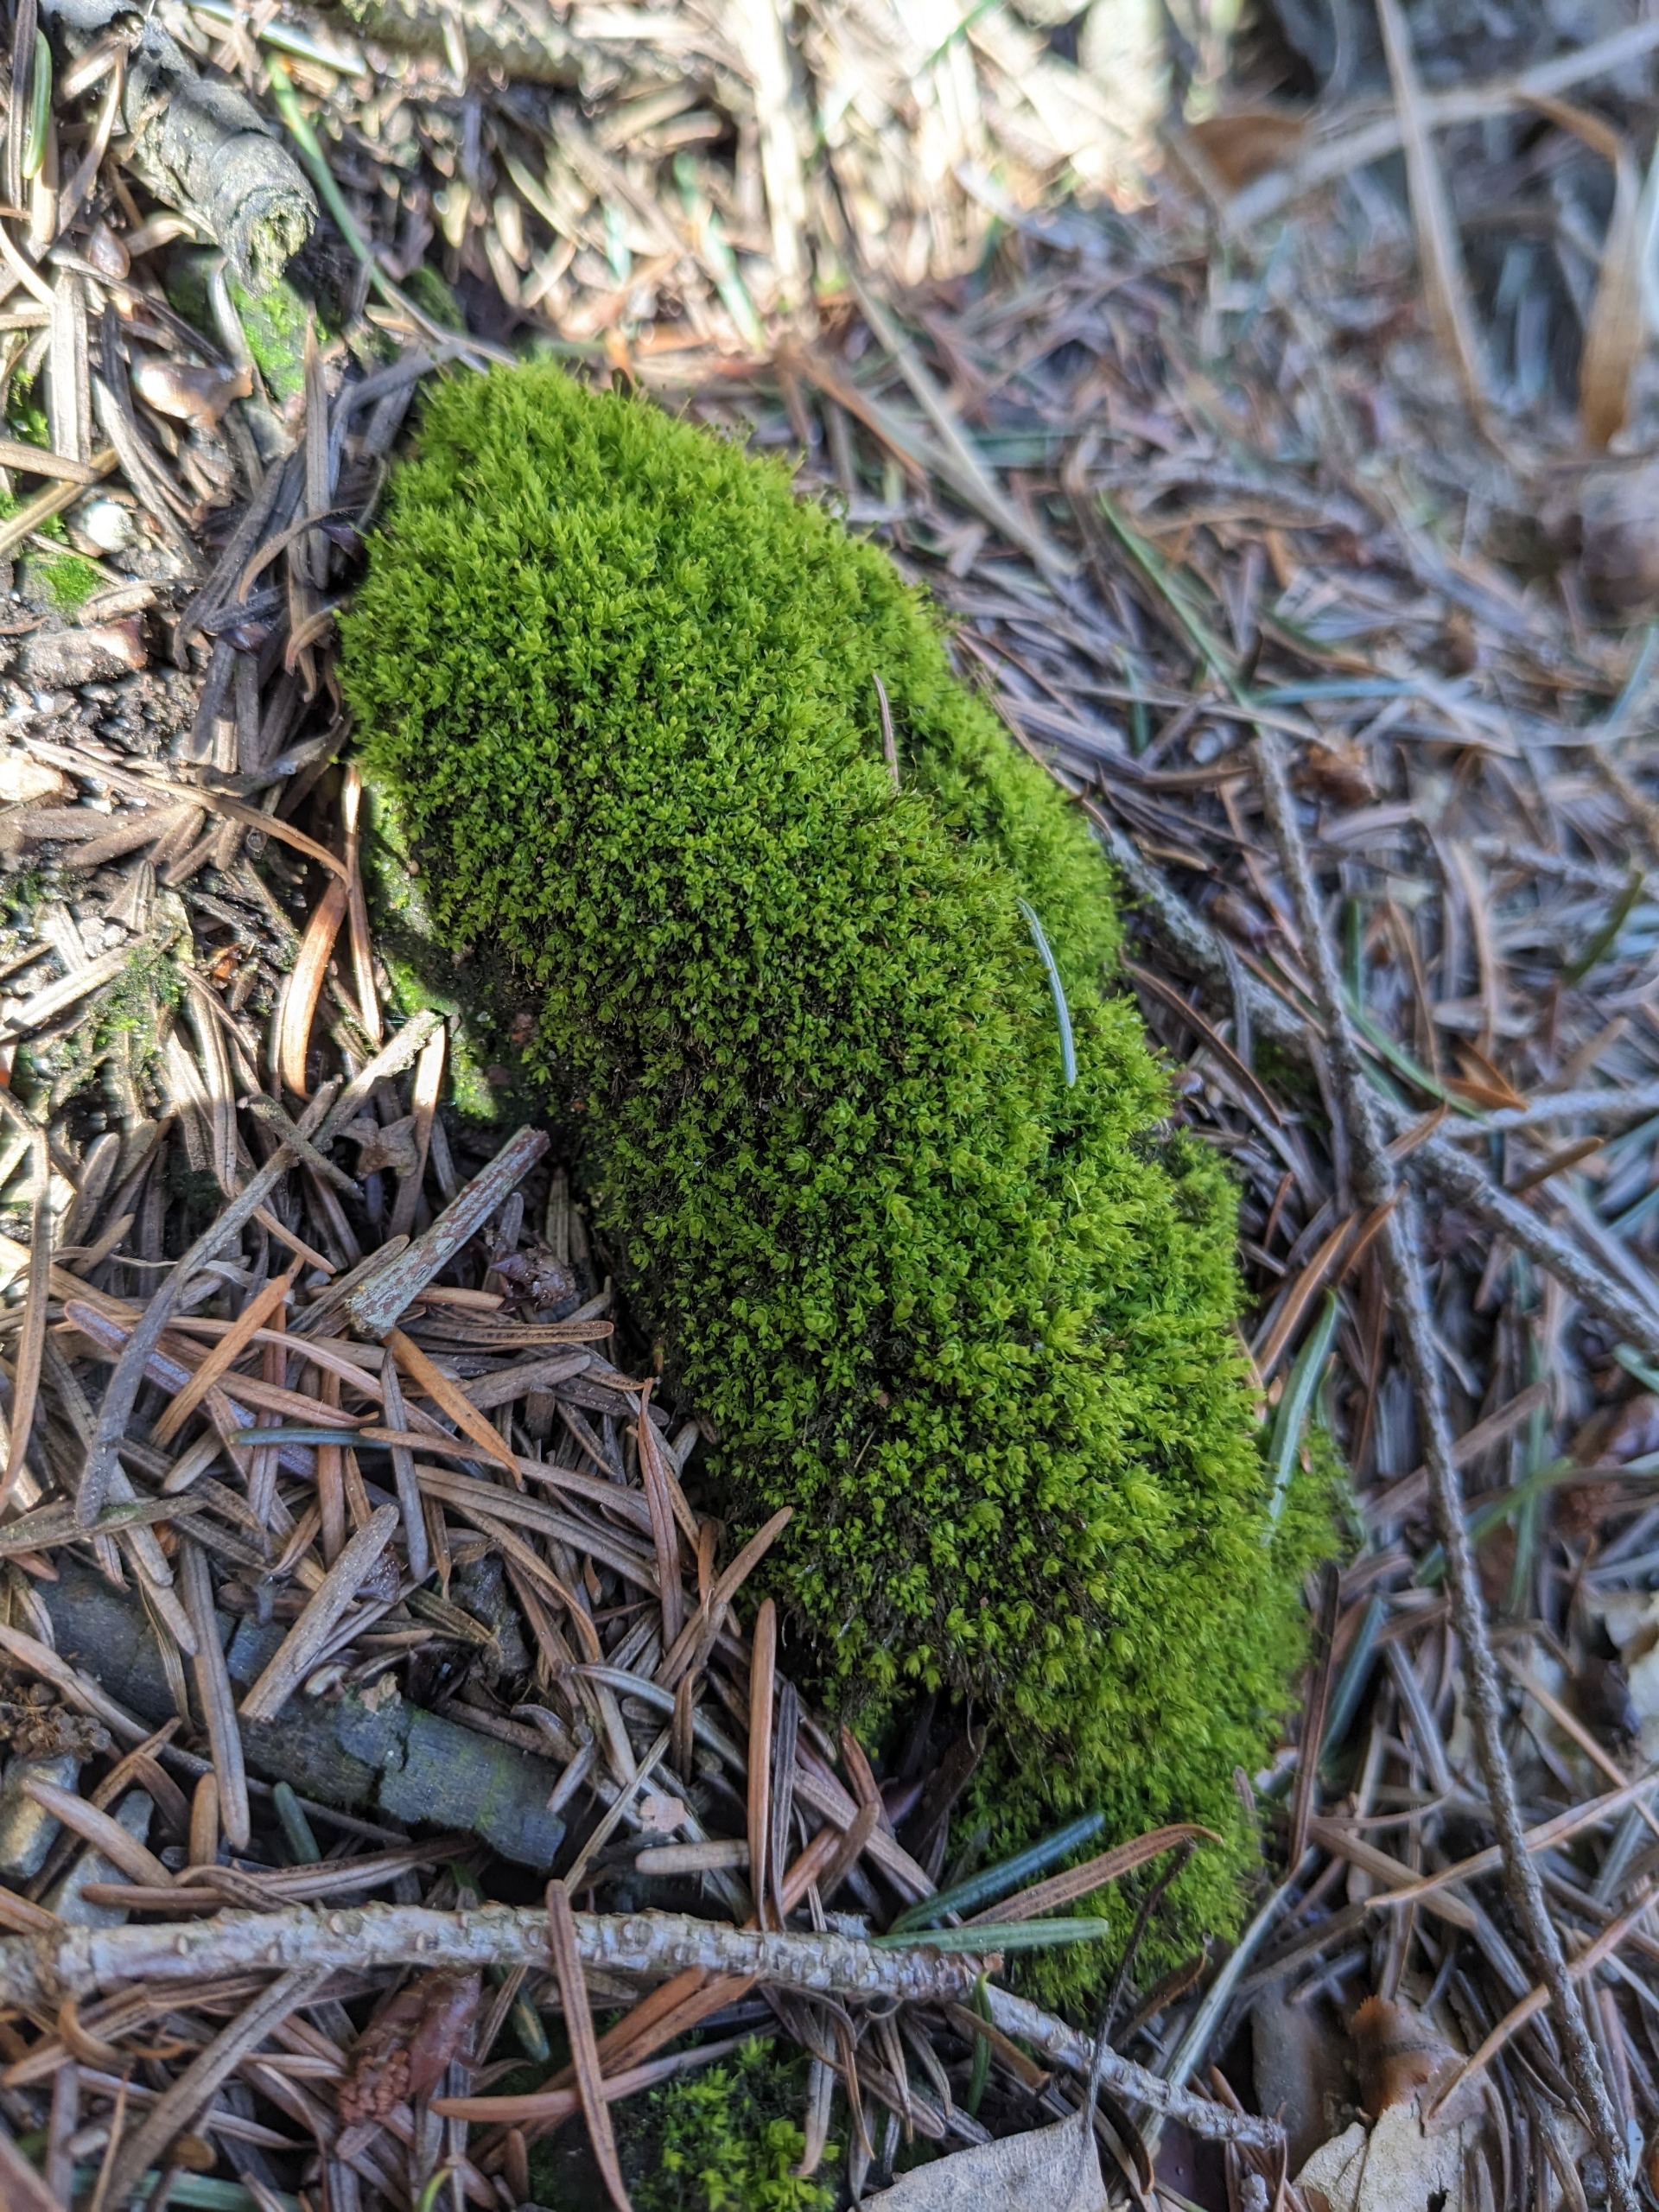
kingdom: Plantae
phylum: Bryophyta
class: Bryopsida
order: Aulacomniales
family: Aulacomniaceae
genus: Aulacomnium
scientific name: Aulacomnium androgynum
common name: Kugle-filtmos
